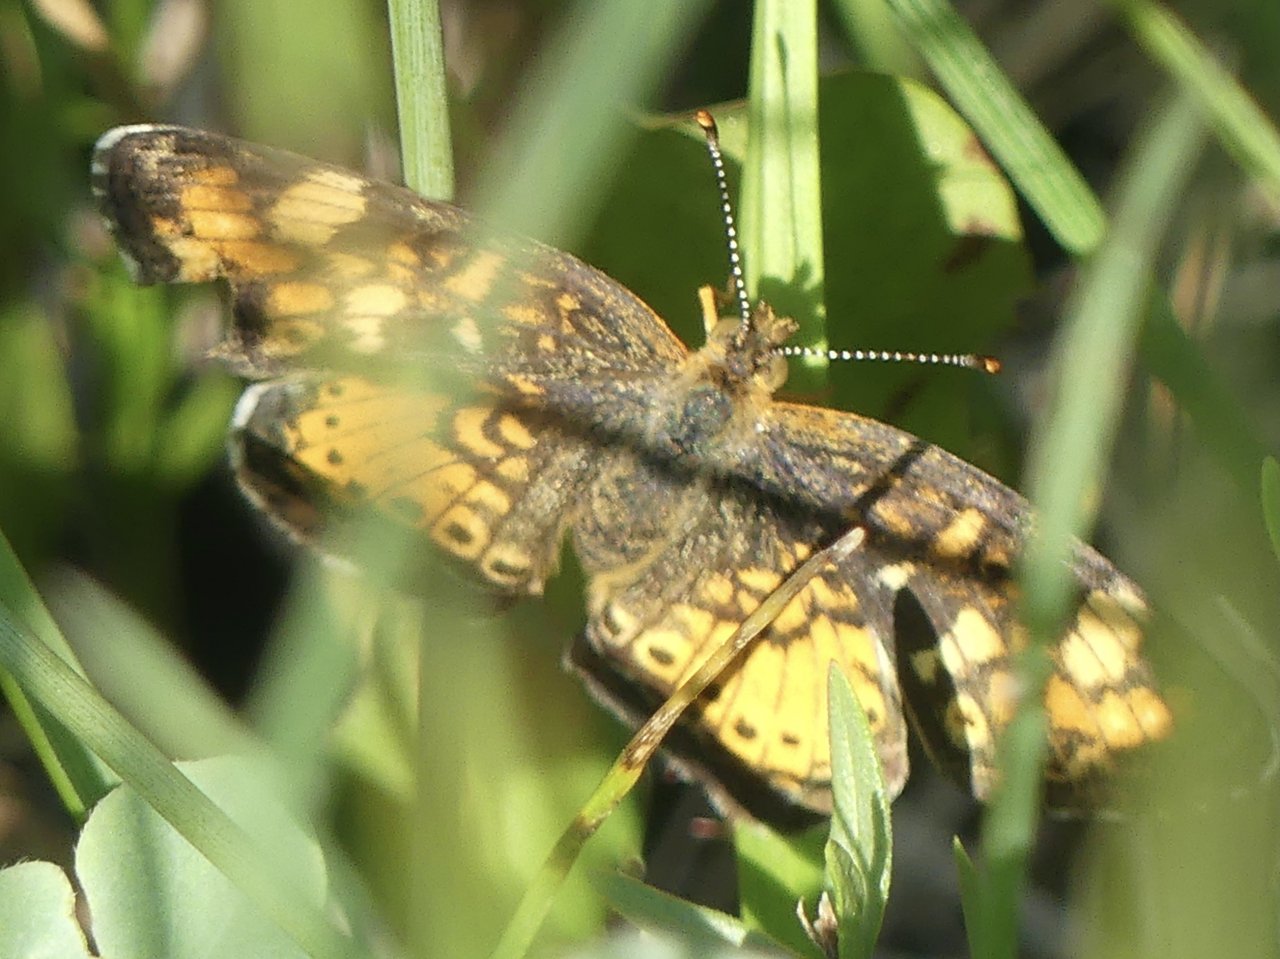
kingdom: Animalia
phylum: Arthropoda
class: Insecta
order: Lepidoptera
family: Nymphalidae
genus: Phyciodes
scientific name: Phyciodes
